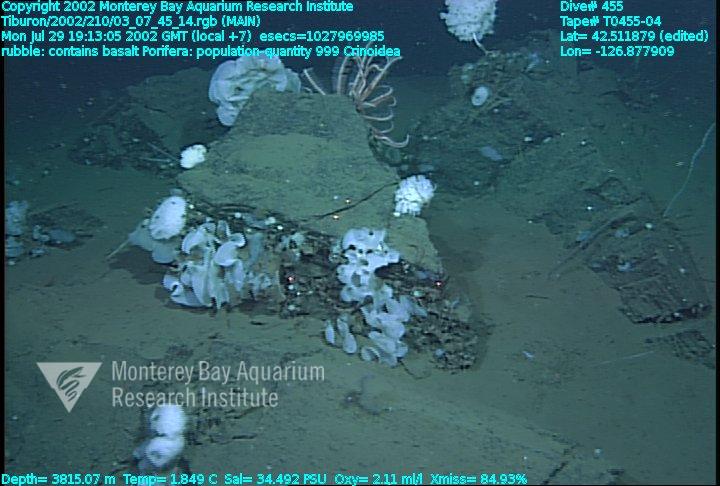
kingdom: Animalia
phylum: Porifera
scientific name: Porifera
